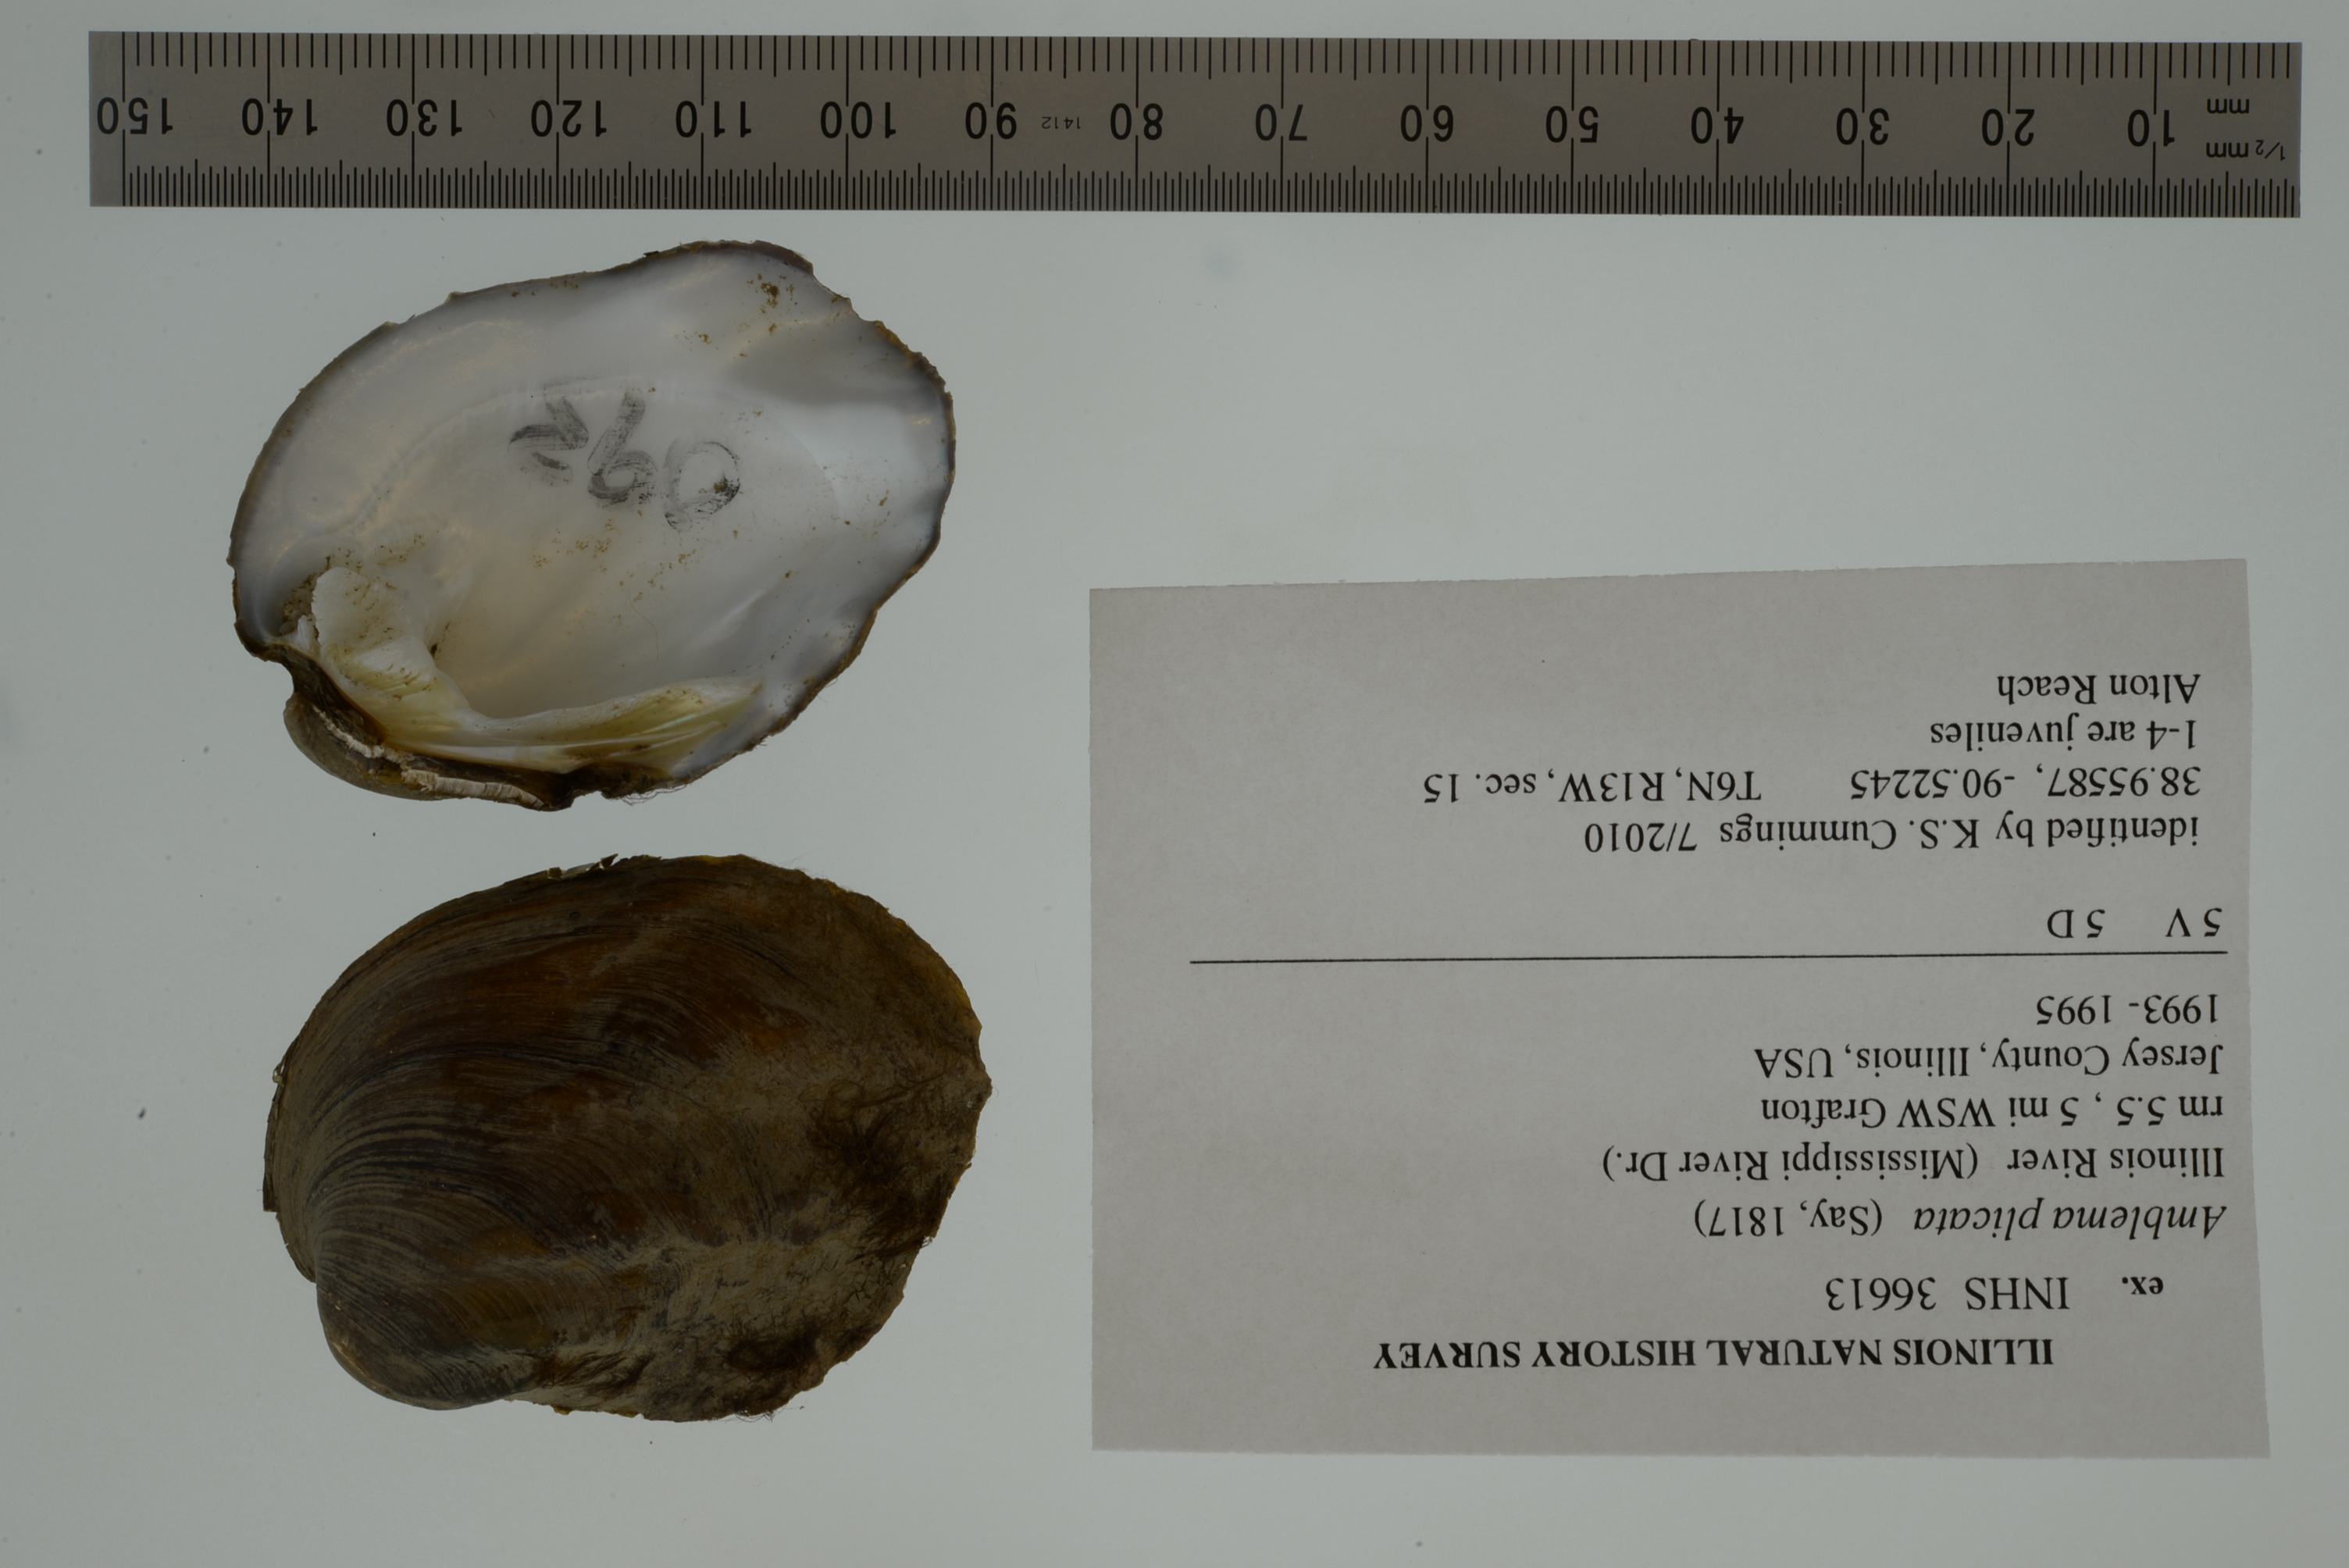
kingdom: Animalia
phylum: Mollusca
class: Bivalvia
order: Unionida
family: Unionidae
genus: Amblema
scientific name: Amblema plicata
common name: Threeridge
